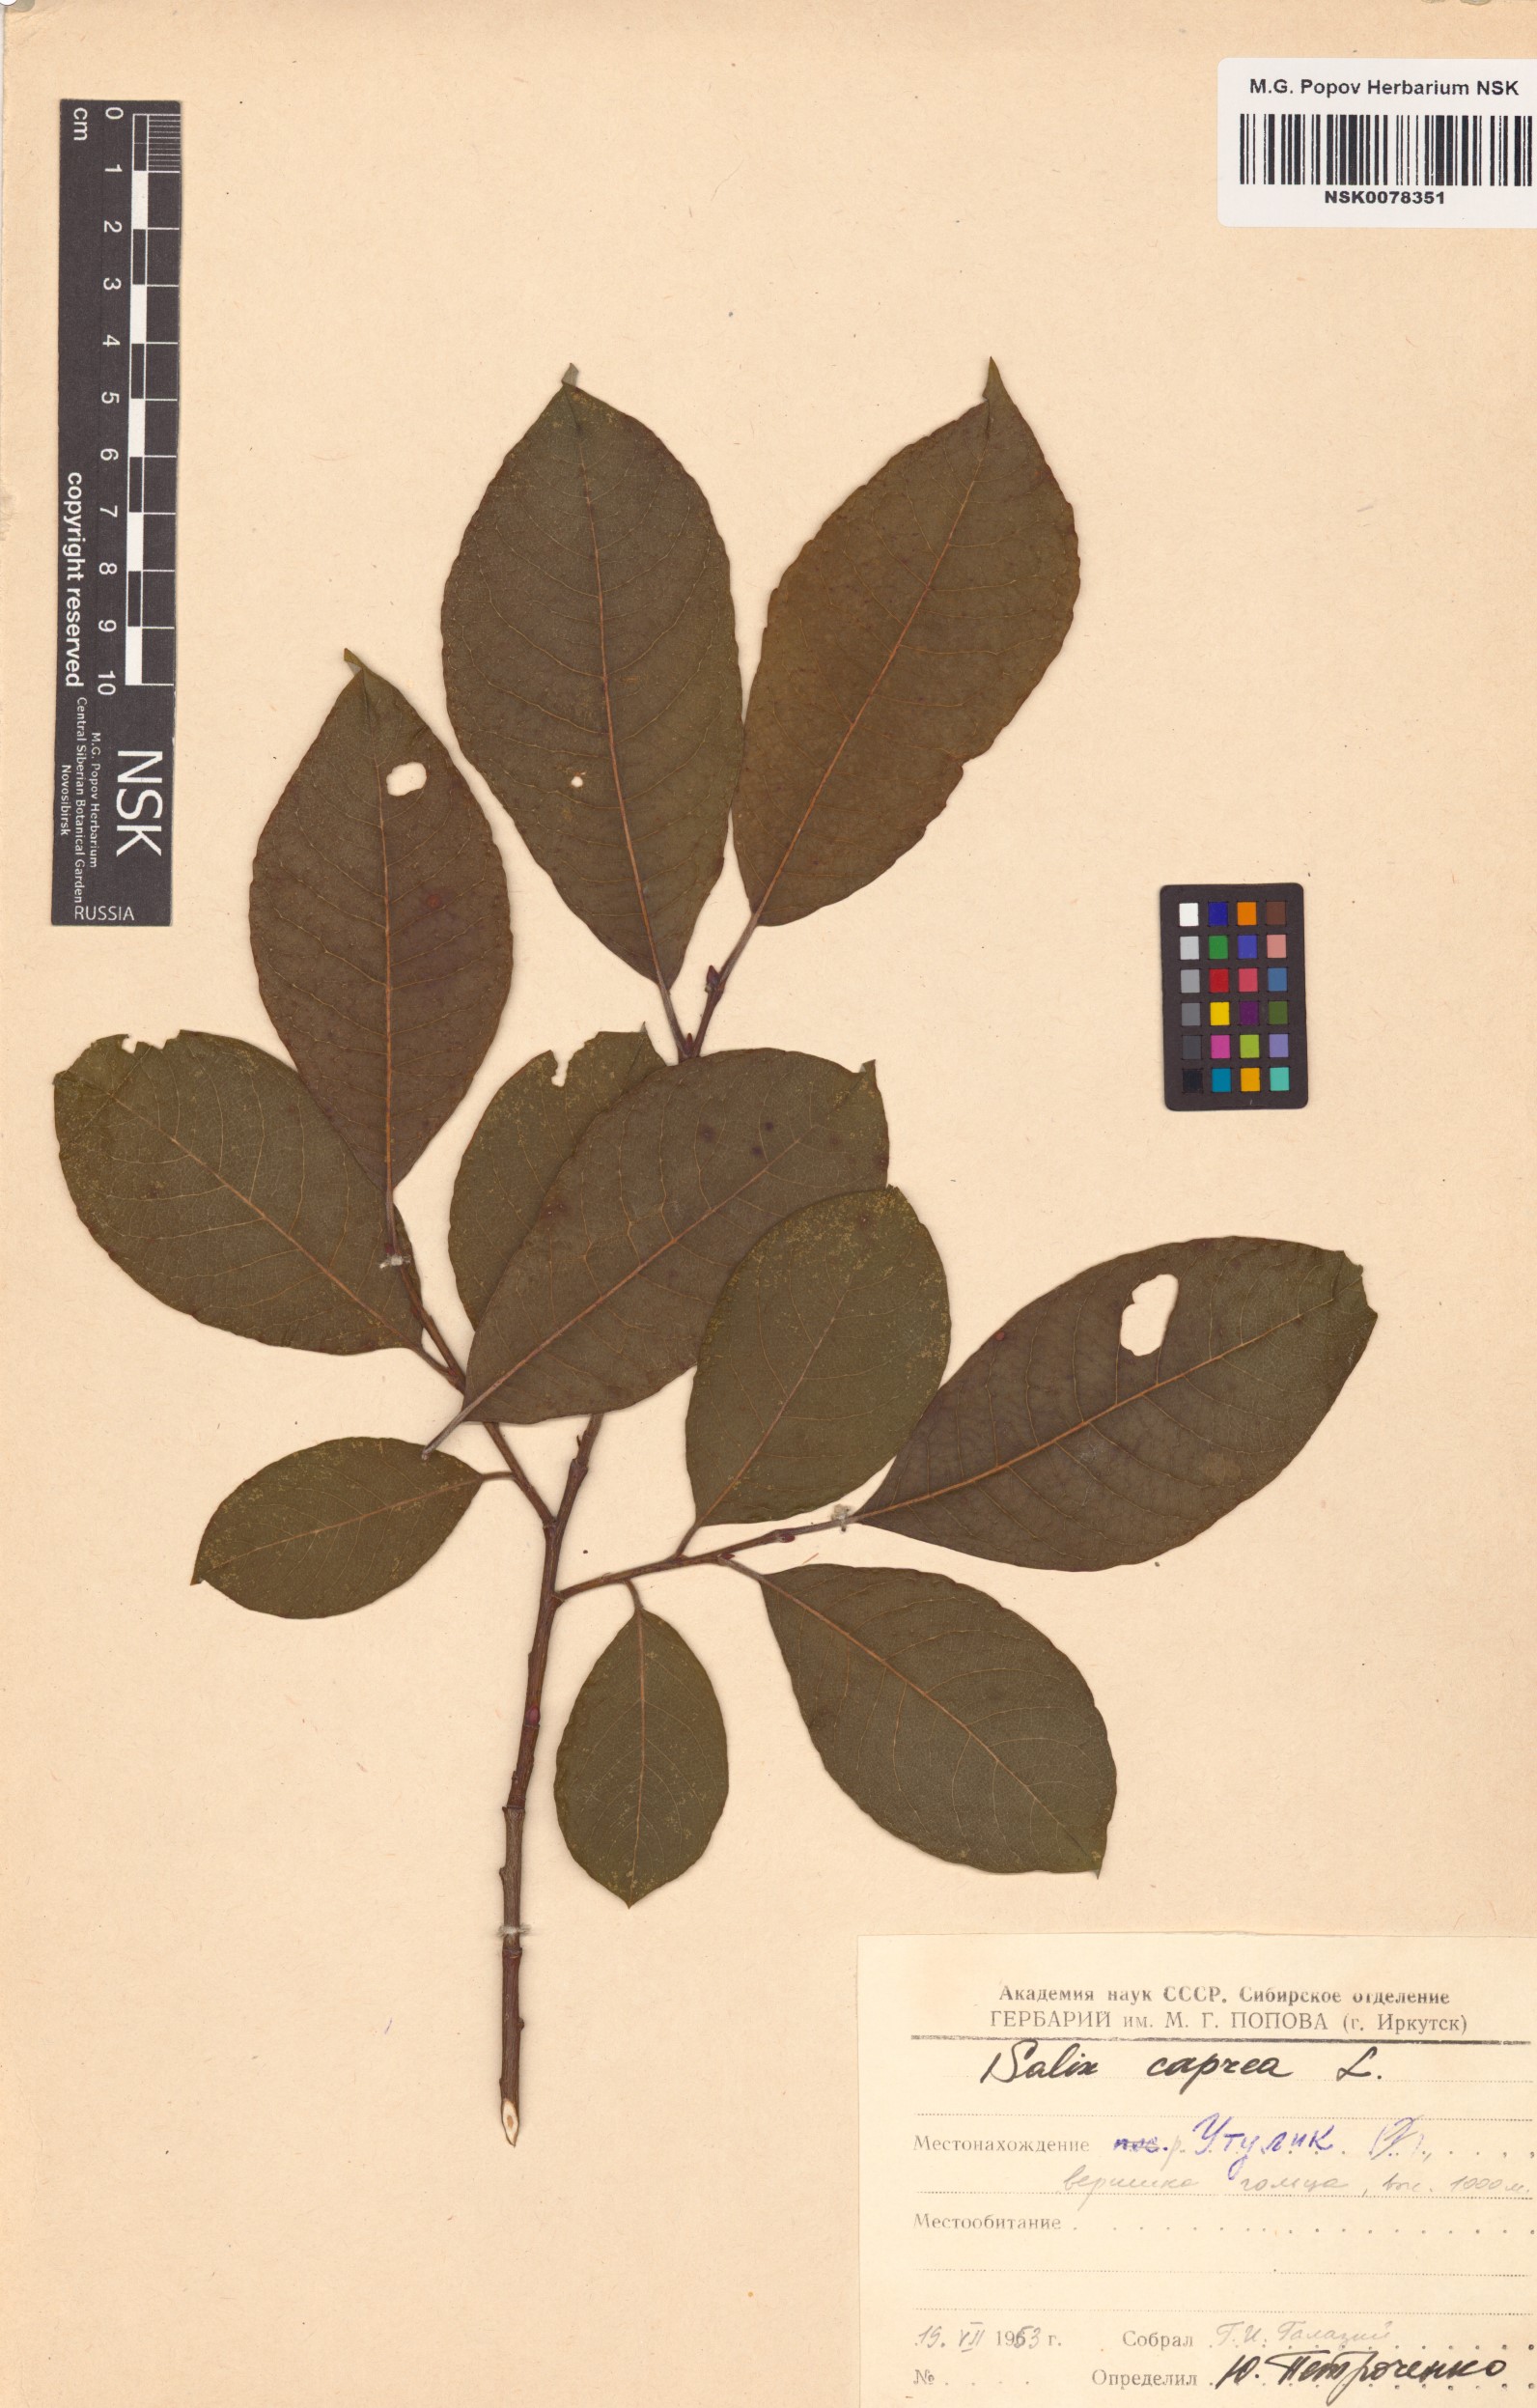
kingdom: Plantae
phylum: Tracheophyta
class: Magnoliopsida
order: Malpighiales
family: Salicaceae
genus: Salix
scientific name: Salix caprea
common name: Goat willow
